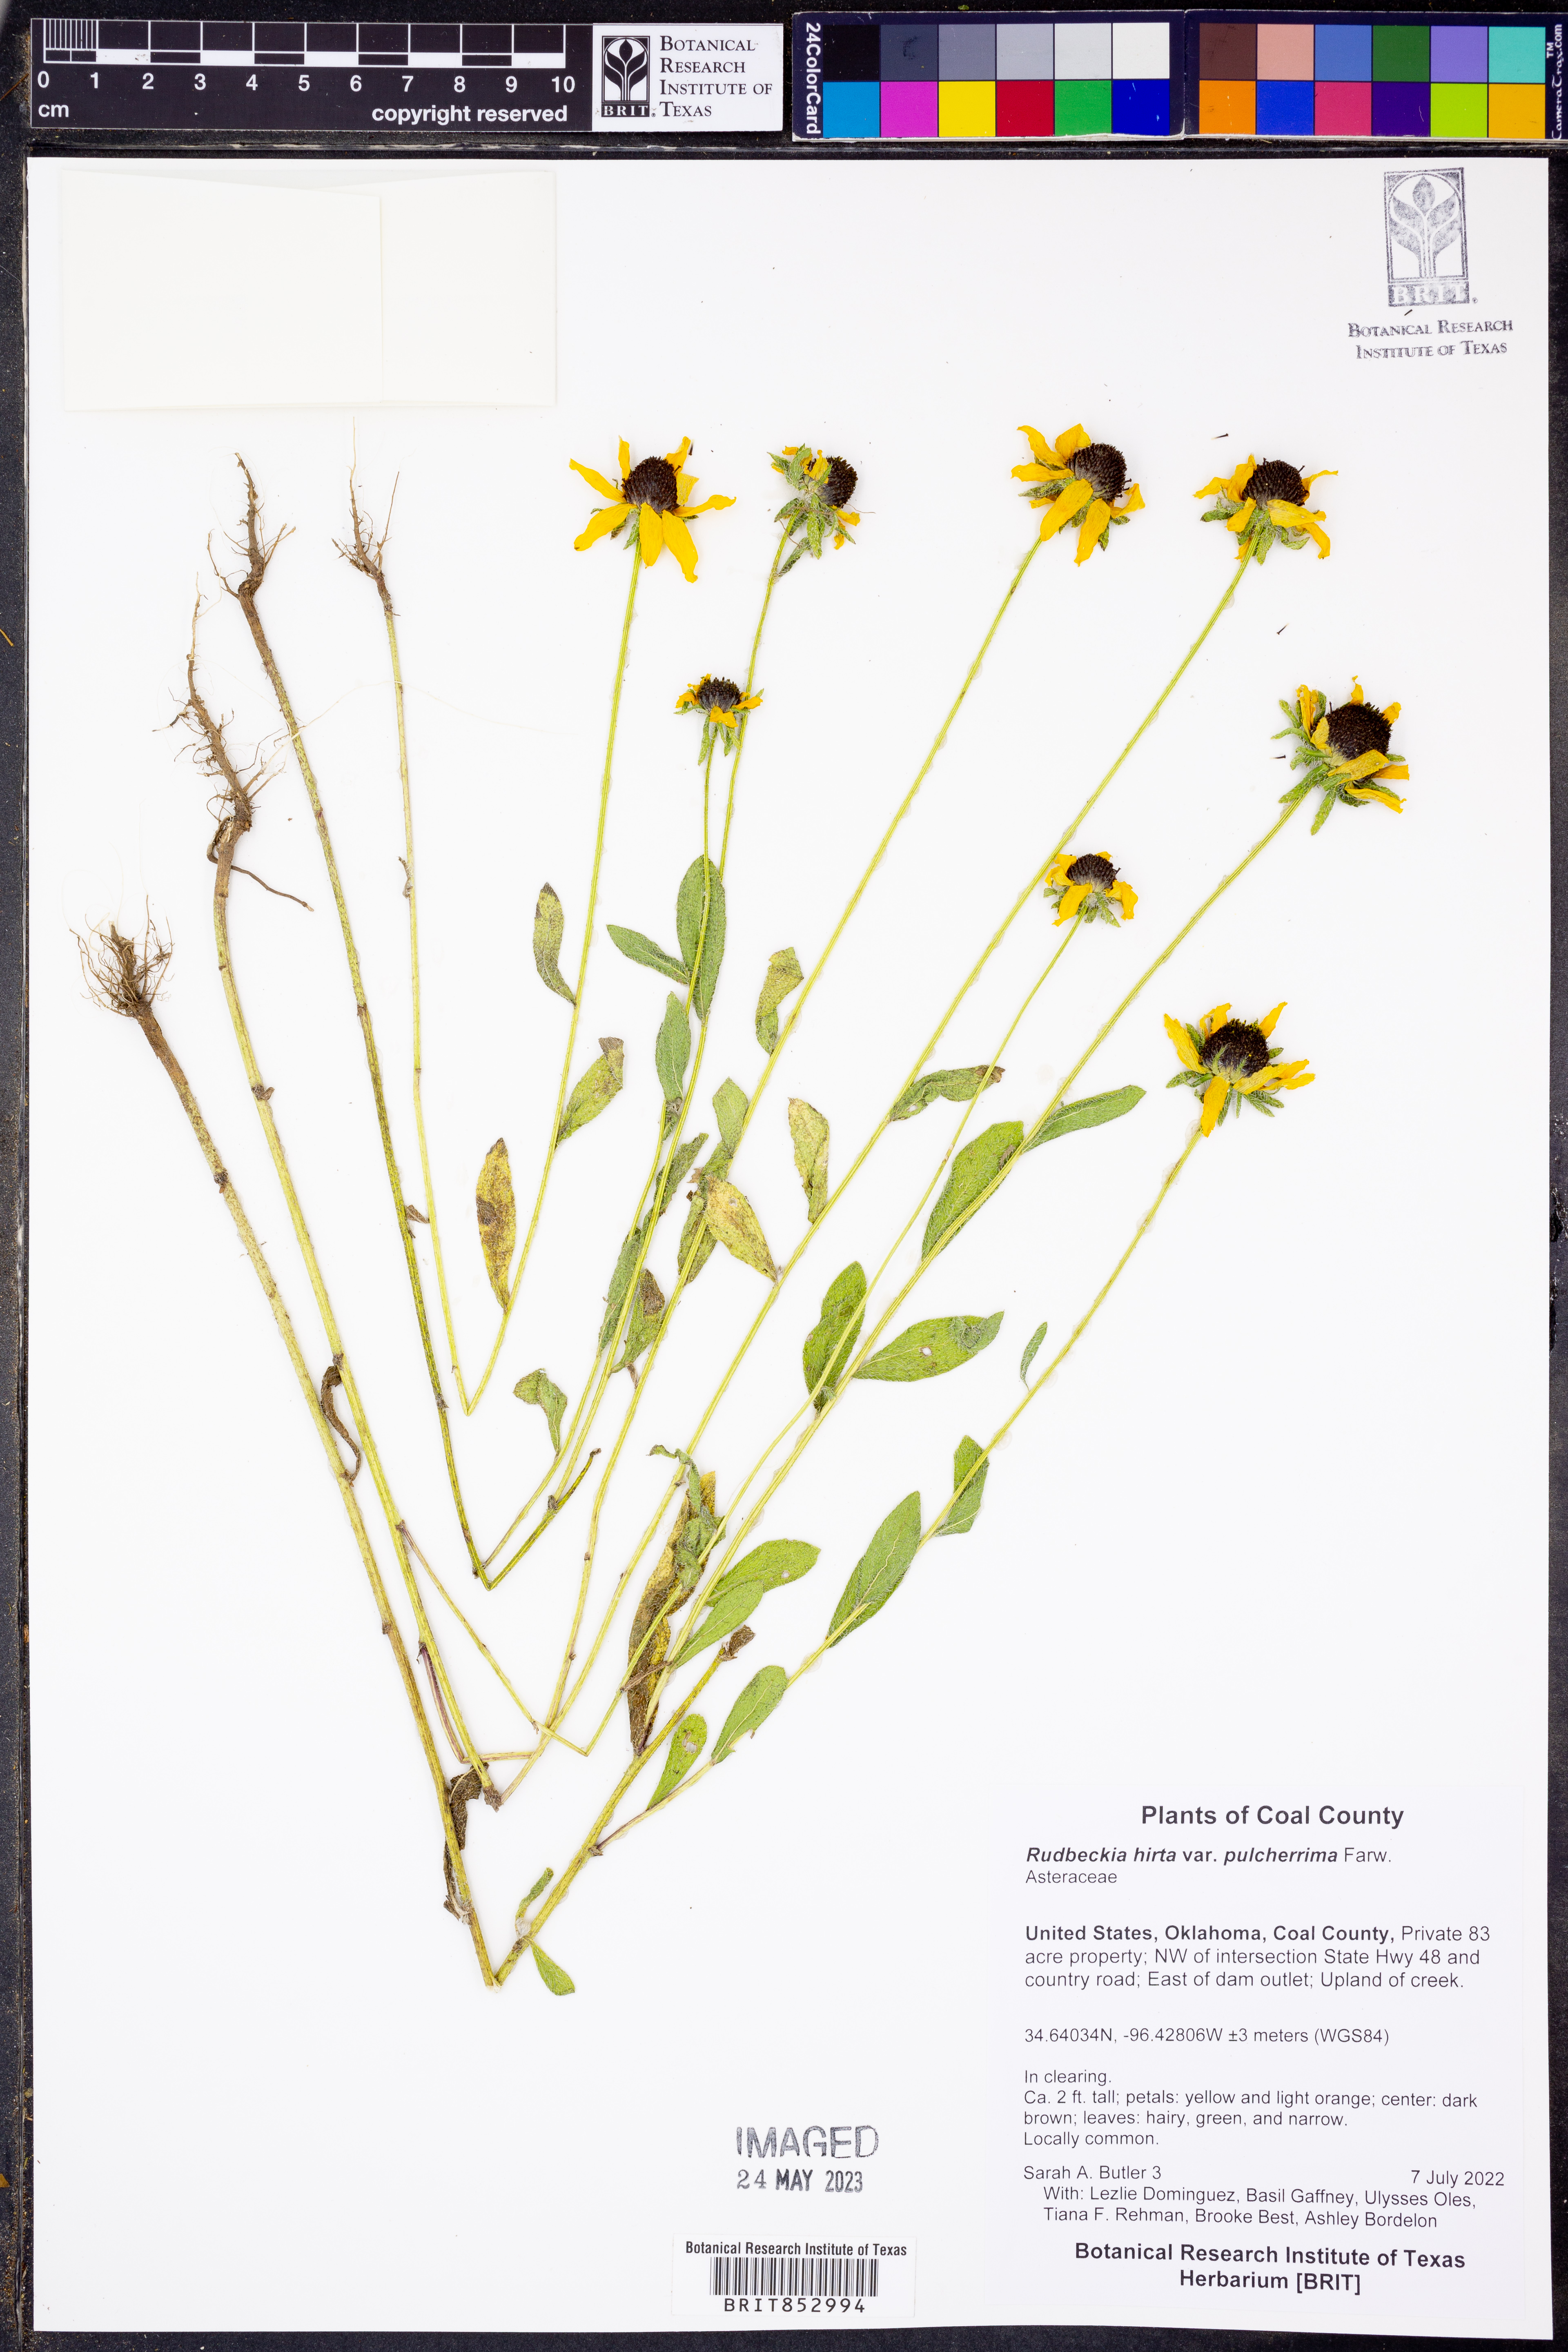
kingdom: Plantae
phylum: Tracheophyta
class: Magnoliopsida
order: Asterales
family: Asteraceae
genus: Rudbeckia
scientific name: Rudbeckia hirta
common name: Black-eyed-susan
